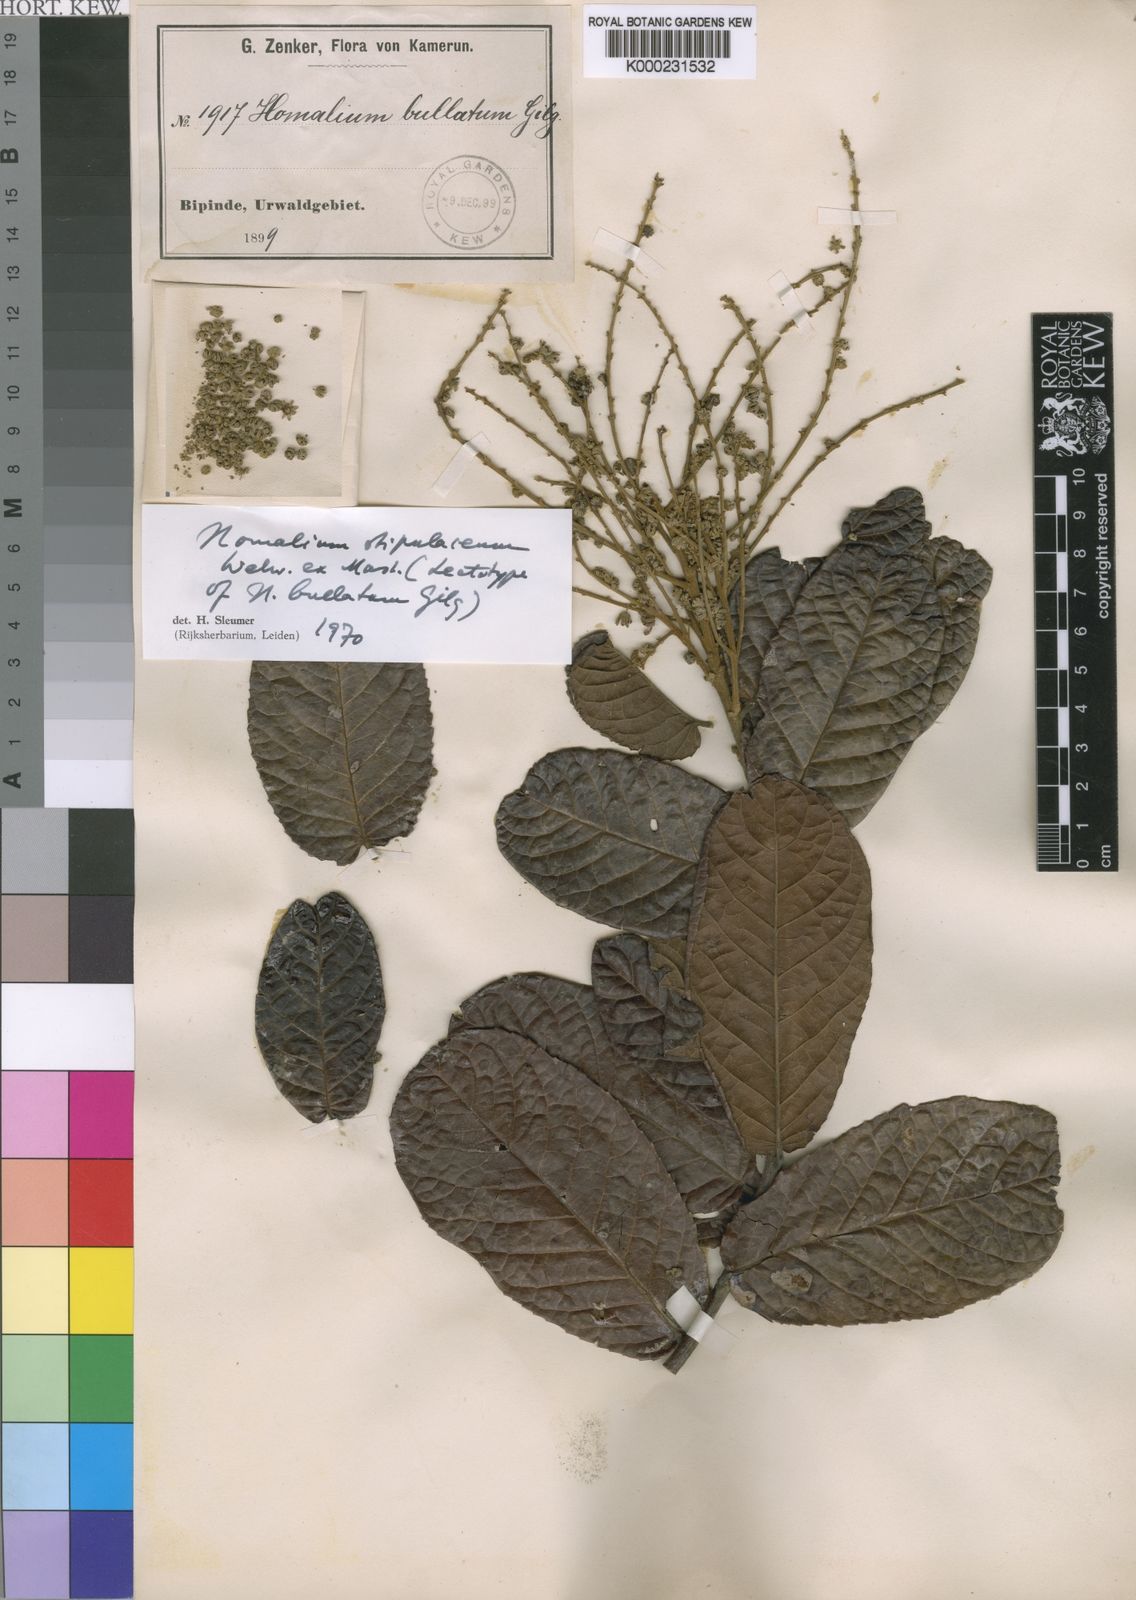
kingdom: Plantae
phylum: Tracheophyta
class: Magnoliopsida
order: Malpighiales
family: Salicaceae
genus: Homalium
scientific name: Homalium stipulaceum
